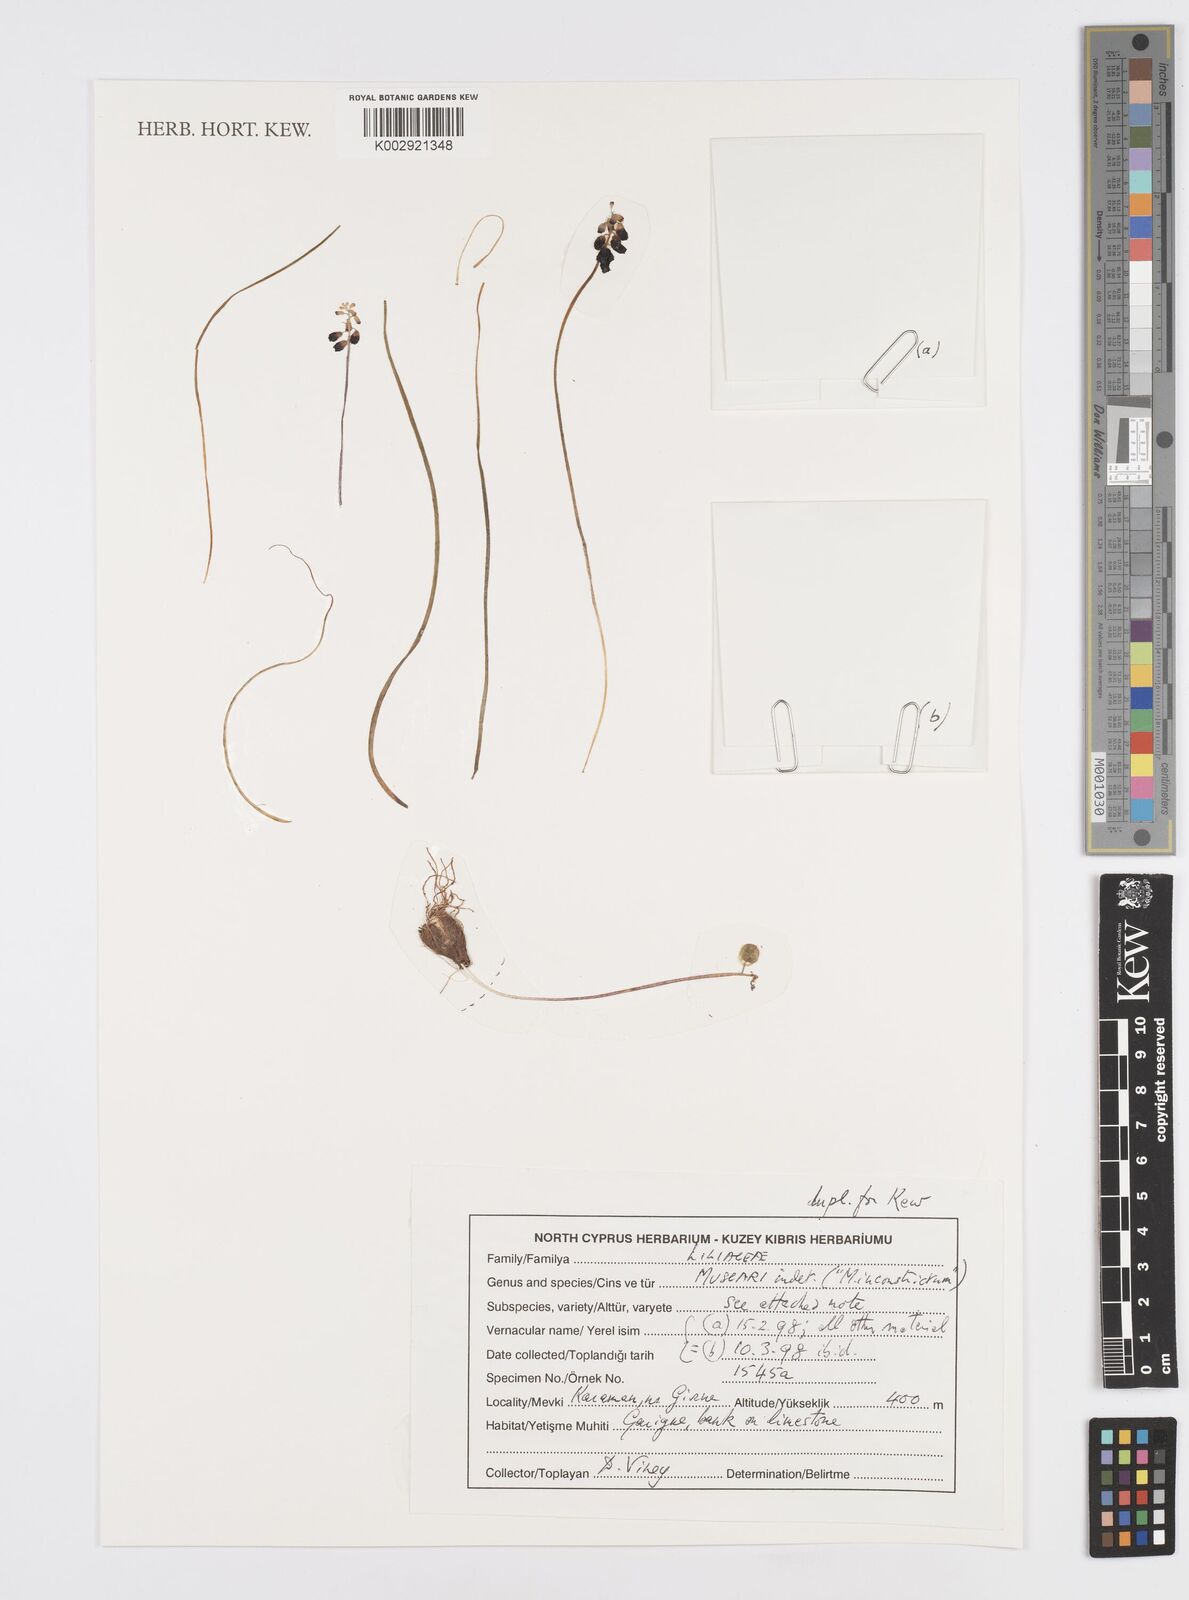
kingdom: Plantae
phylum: Tracheophyta
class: Liliopsida
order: Asparagales
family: Asparagaceae
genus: Muscari
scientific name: Muscari inconstrictum
